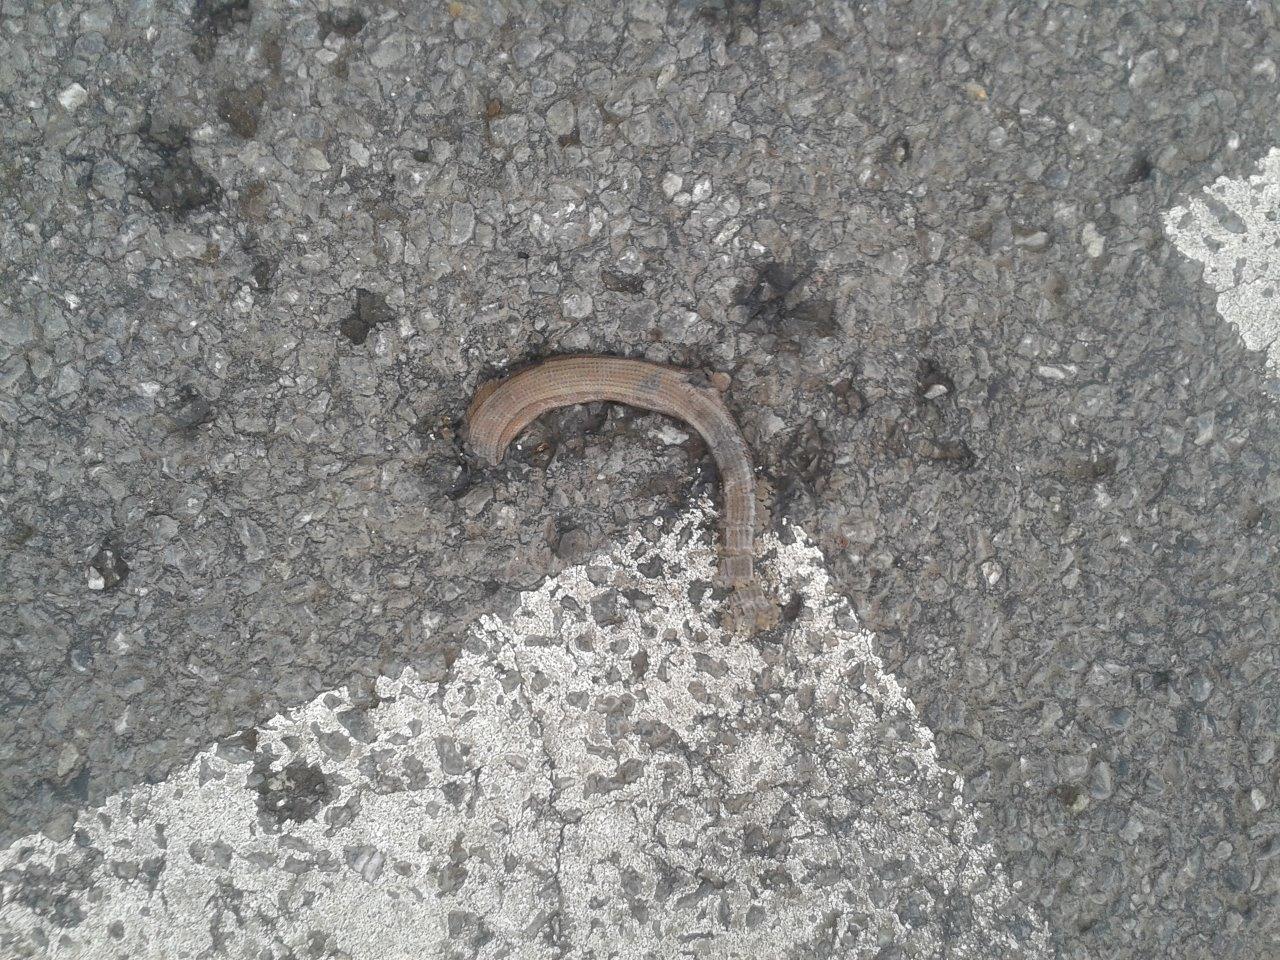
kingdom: Animalia
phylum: Chordata
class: Squamata
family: Anguidae
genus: Anguis
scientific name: Anguis fragilis
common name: Slow worm
